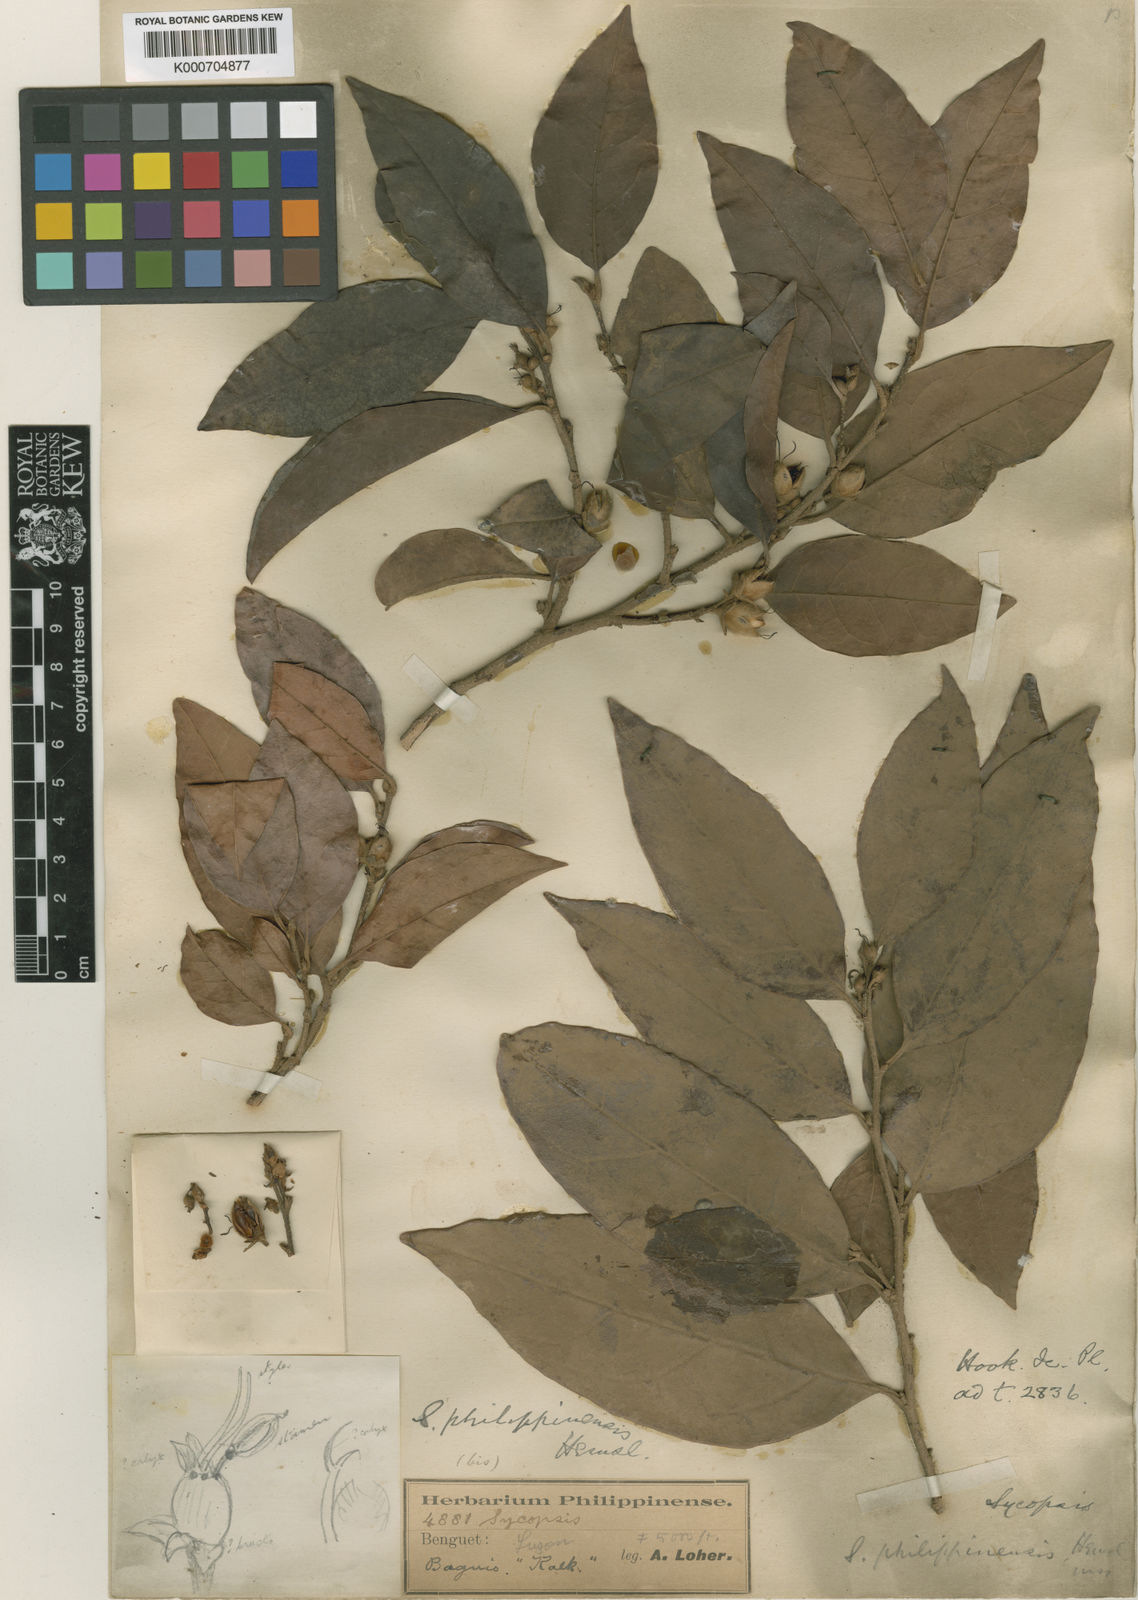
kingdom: Plantae
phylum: Tracheophyta
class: Magnoliopsida
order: Saxifragales
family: Hamamelidaceae
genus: Distyliopsis
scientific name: Distyliopsis dunnii
